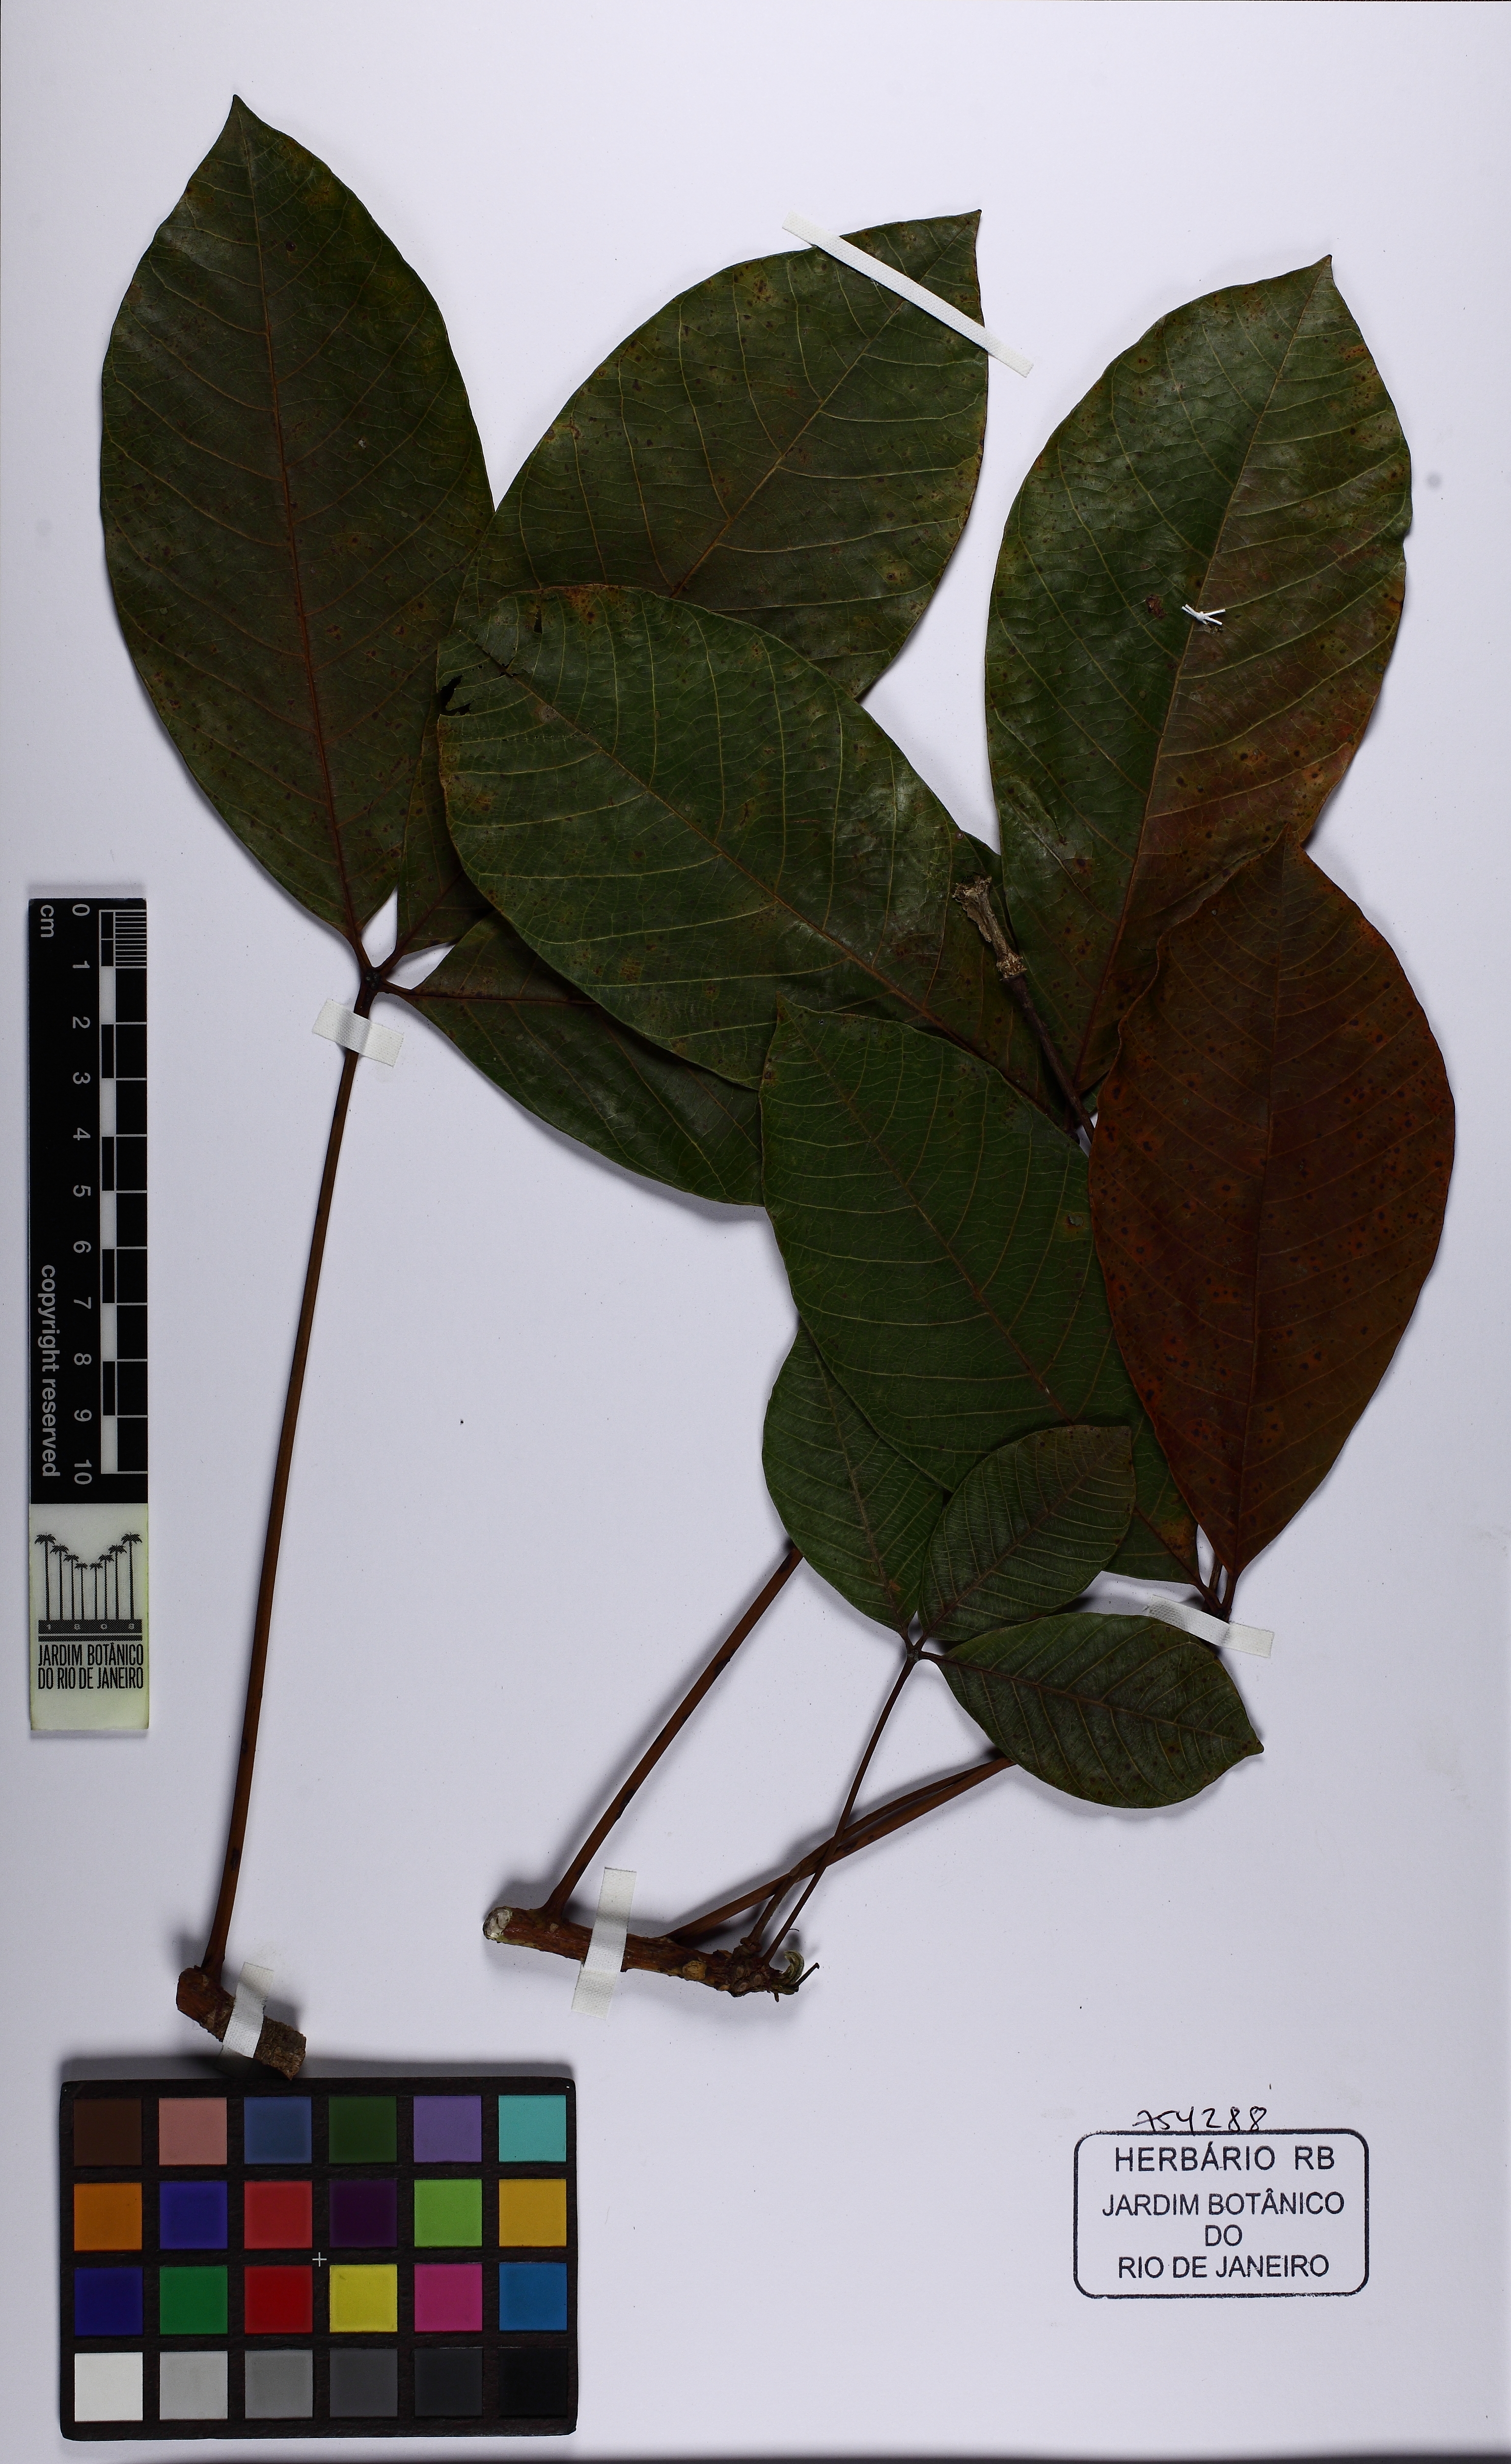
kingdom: Plantae
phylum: Tracheophyta
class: Magnoliopsida
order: Malpighiales
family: Euphorbiaceae
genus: Hevea
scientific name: Hevea benthamiana
